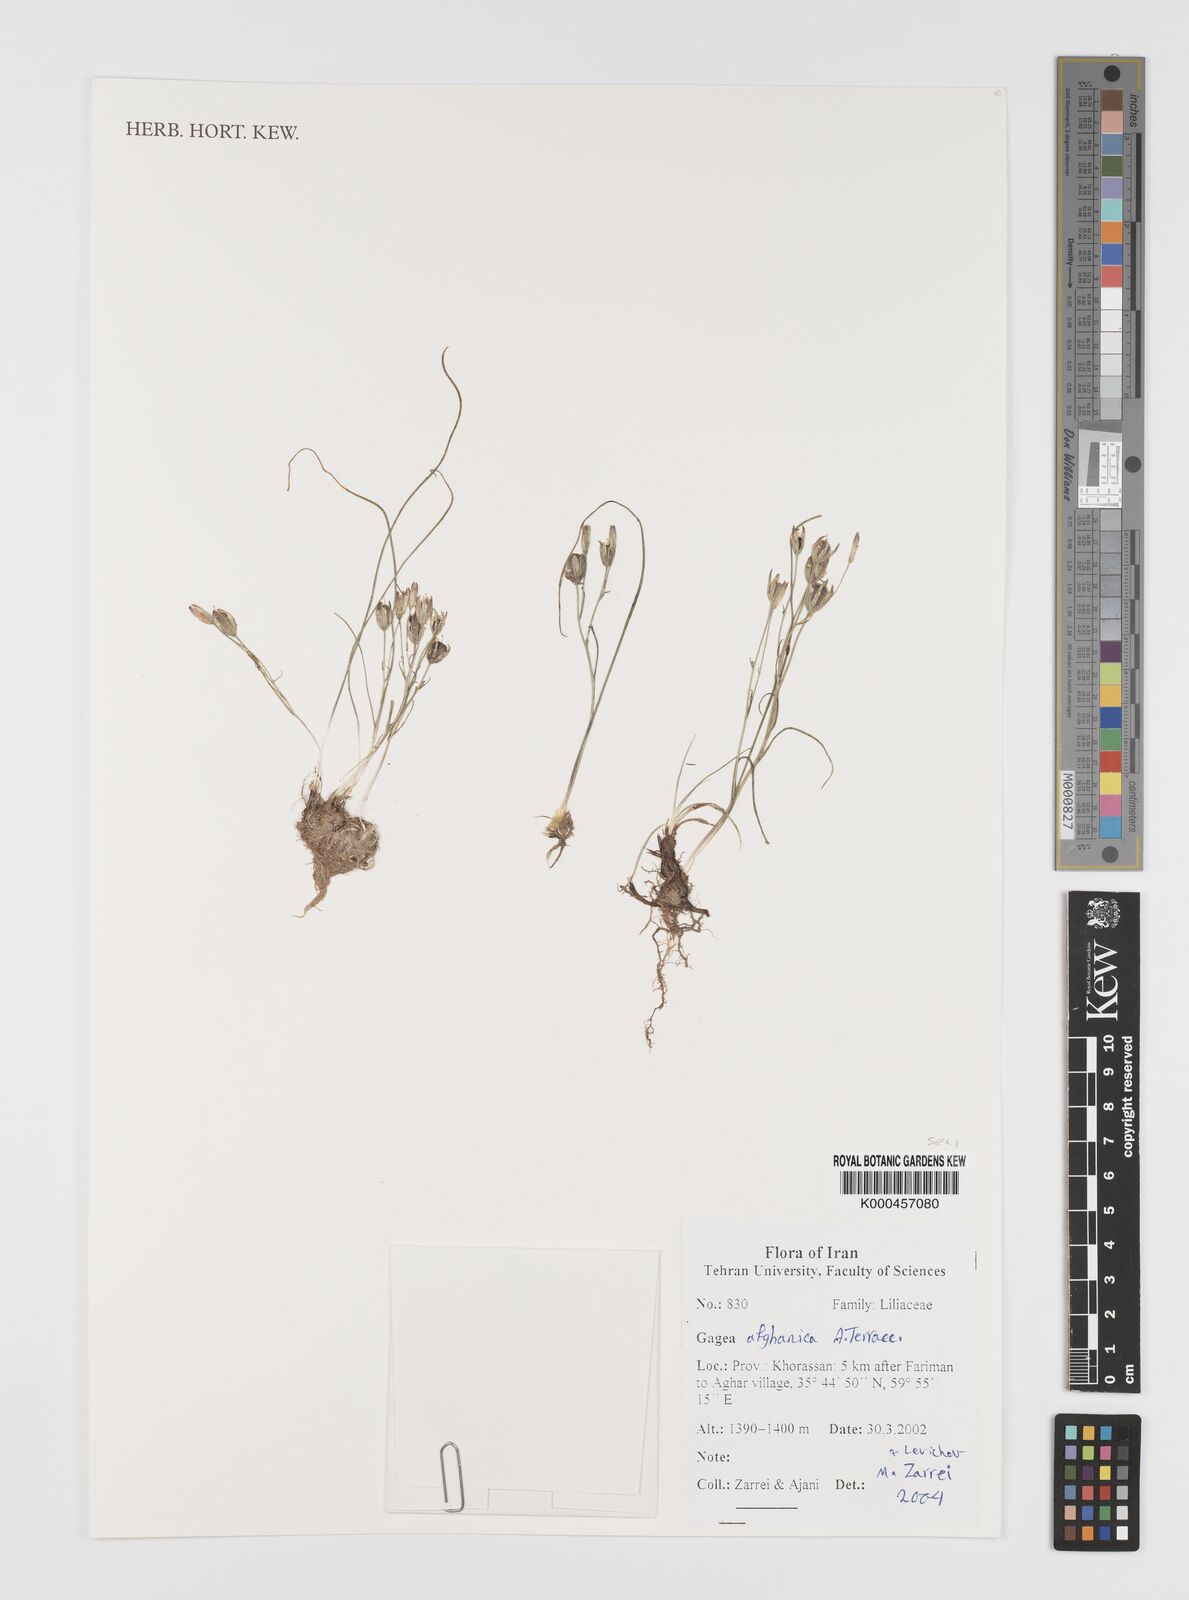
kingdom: Plantae
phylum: Tracheophyta
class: Liliopsida
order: Liliales
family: Liliaceae
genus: Gagea
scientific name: Gagea afghanica
